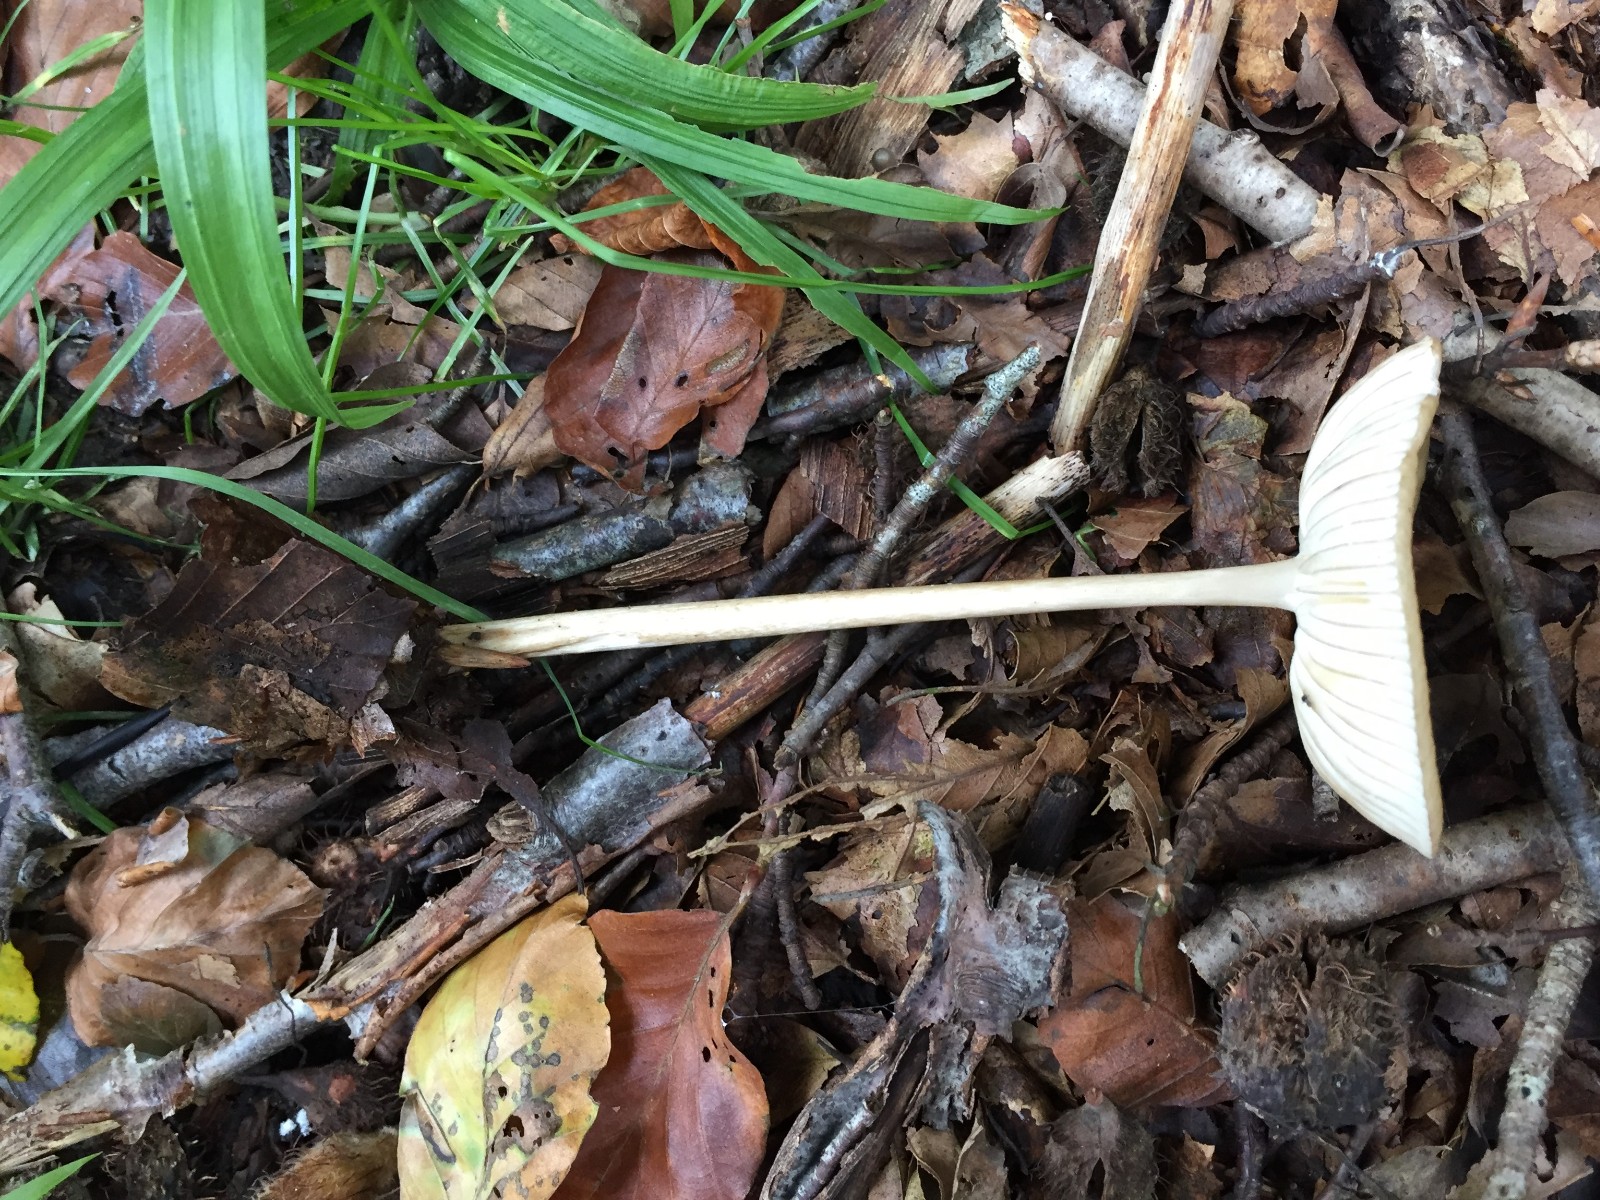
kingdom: Fungi
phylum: Basidiomycota
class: Agaricomycetes
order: Agaricales
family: Physalacriaceae
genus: Hymenopellis
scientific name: Hymenopellis radicata
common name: almindelig pælerodshat
